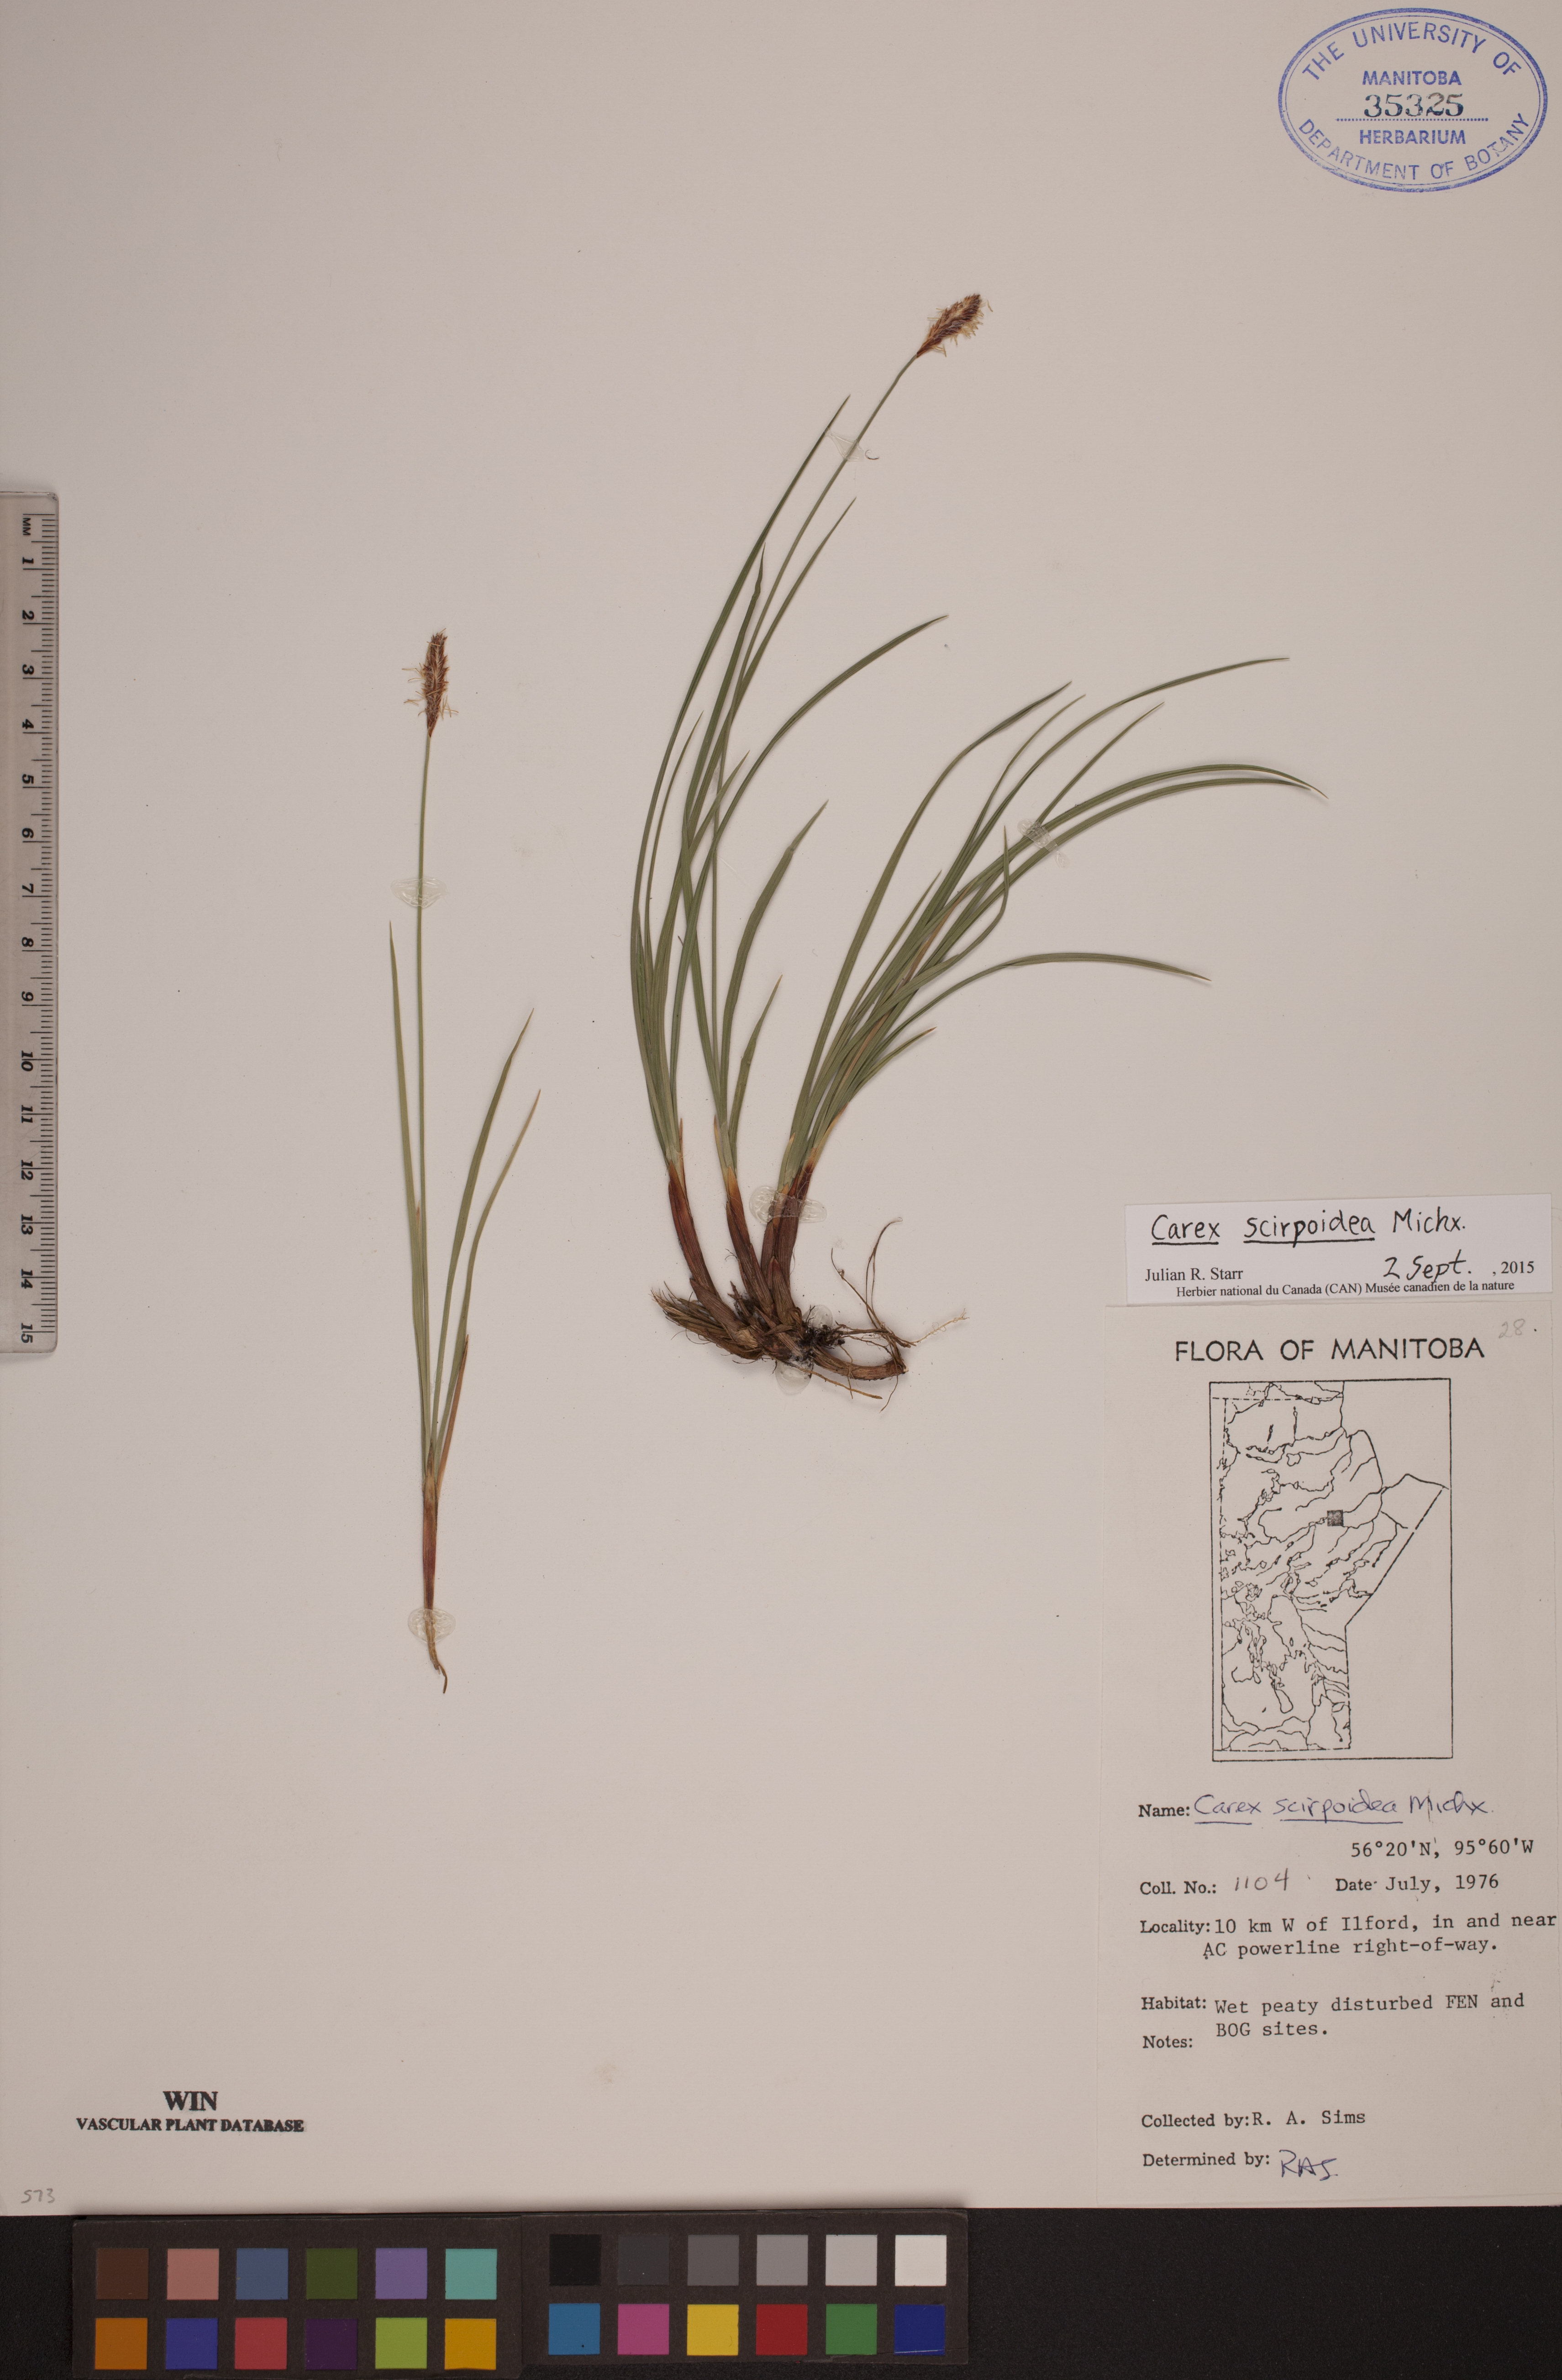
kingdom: Plantae
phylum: Tracheophyta
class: Liliopsida
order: Poales
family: Cyperaceae
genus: Carex
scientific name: Carex scirpoidea
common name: Canada single-spike sedge
